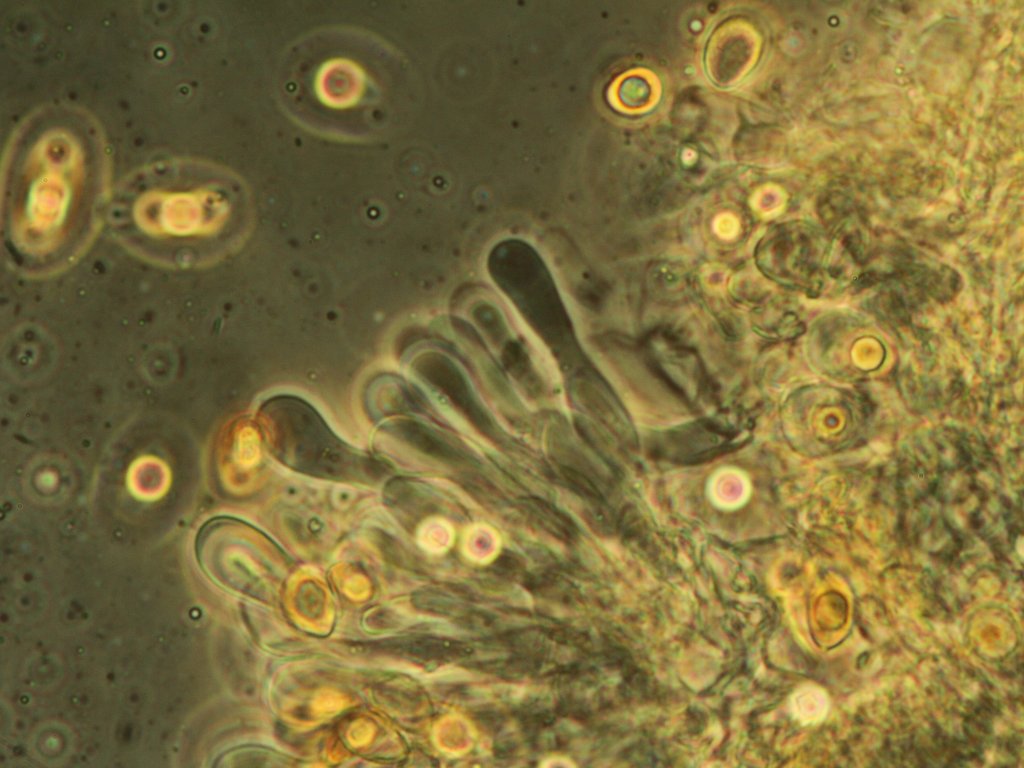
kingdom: Fungi
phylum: Basidiomycota
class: Agaricomycetes
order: Agaricales
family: Hymenogastraceae
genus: Hebeloma
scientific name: Hebeloma pusillum
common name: mose-tåreblad
